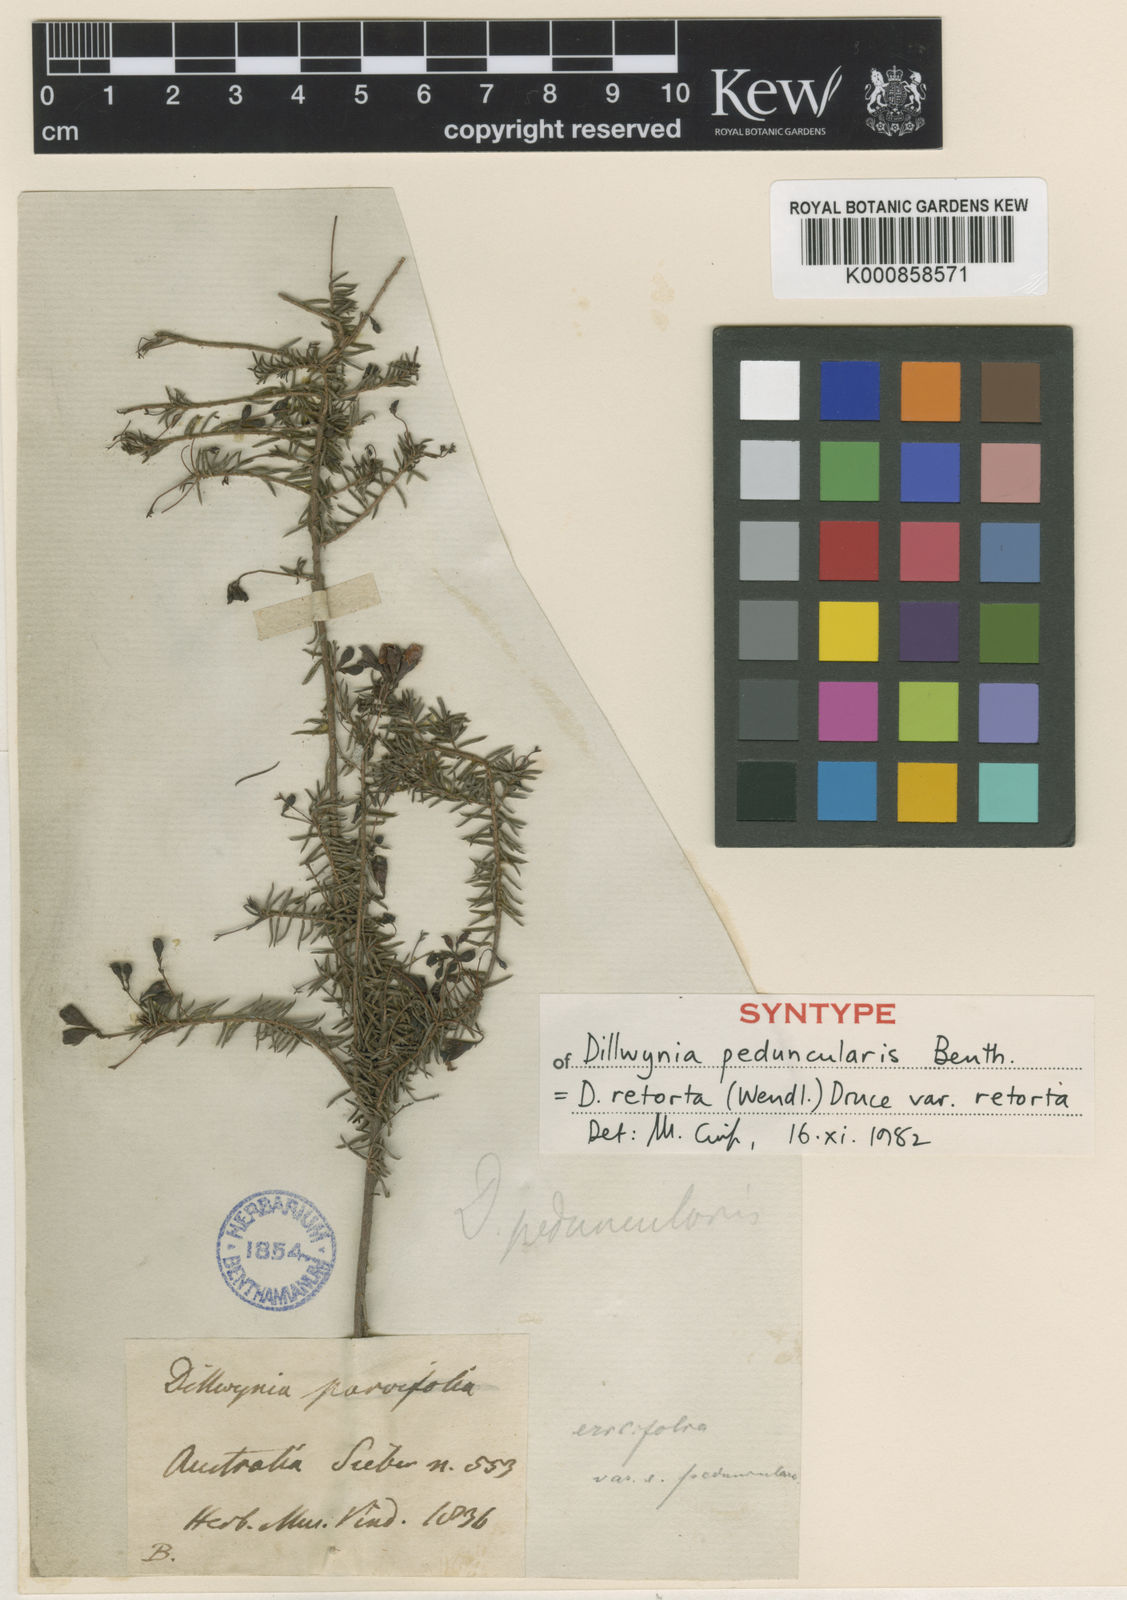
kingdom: Plantae
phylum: Tracheophyta
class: Magnoliopsida
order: Fabales
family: Fabaceae
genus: Dillwynia
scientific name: Dillwynia retorta
